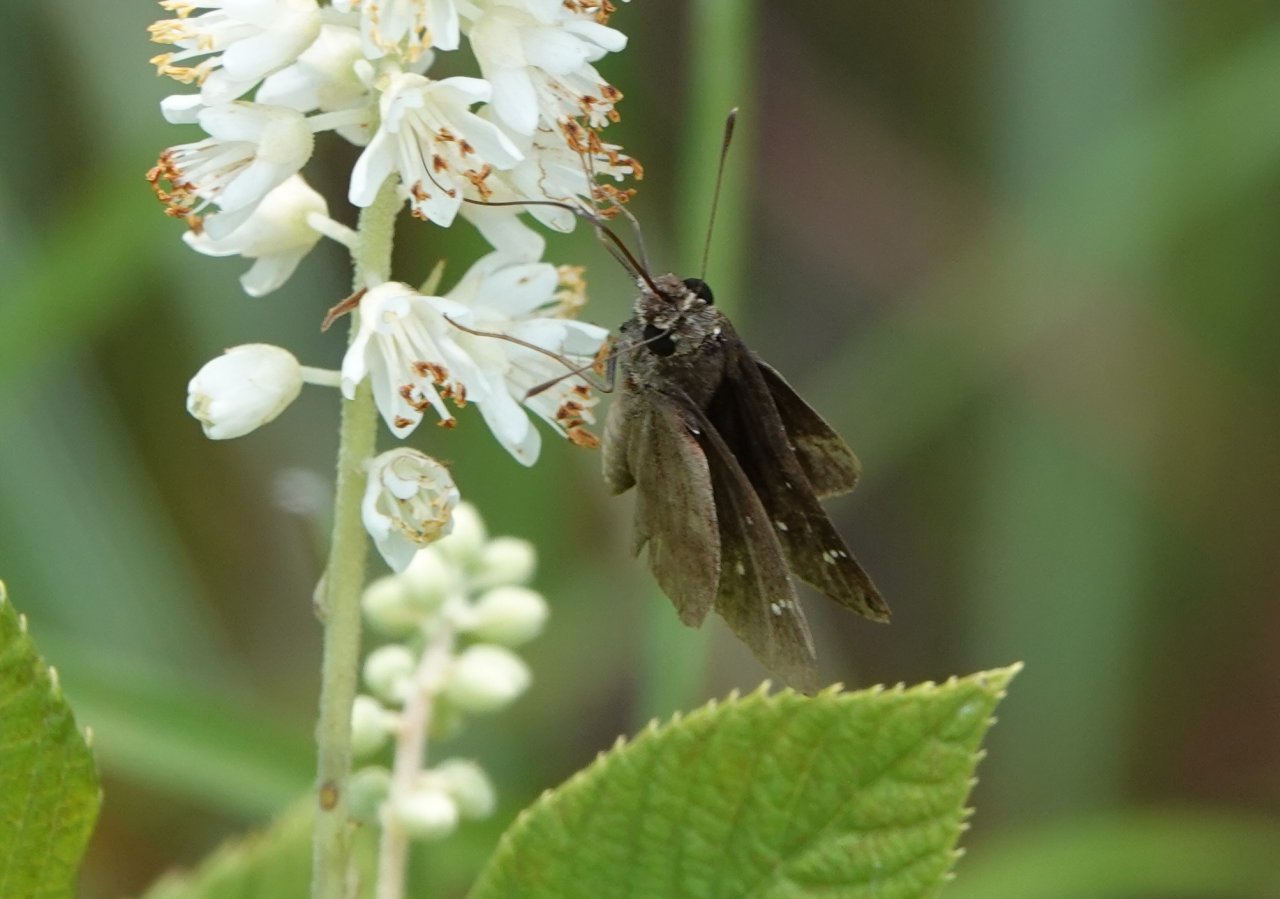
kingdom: Animalia
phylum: Arthropoda
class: Insecta
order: Lepidoptera
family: Hesperiidae
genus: Lerema
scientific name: Lerema accius
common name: Clouded Skipper
